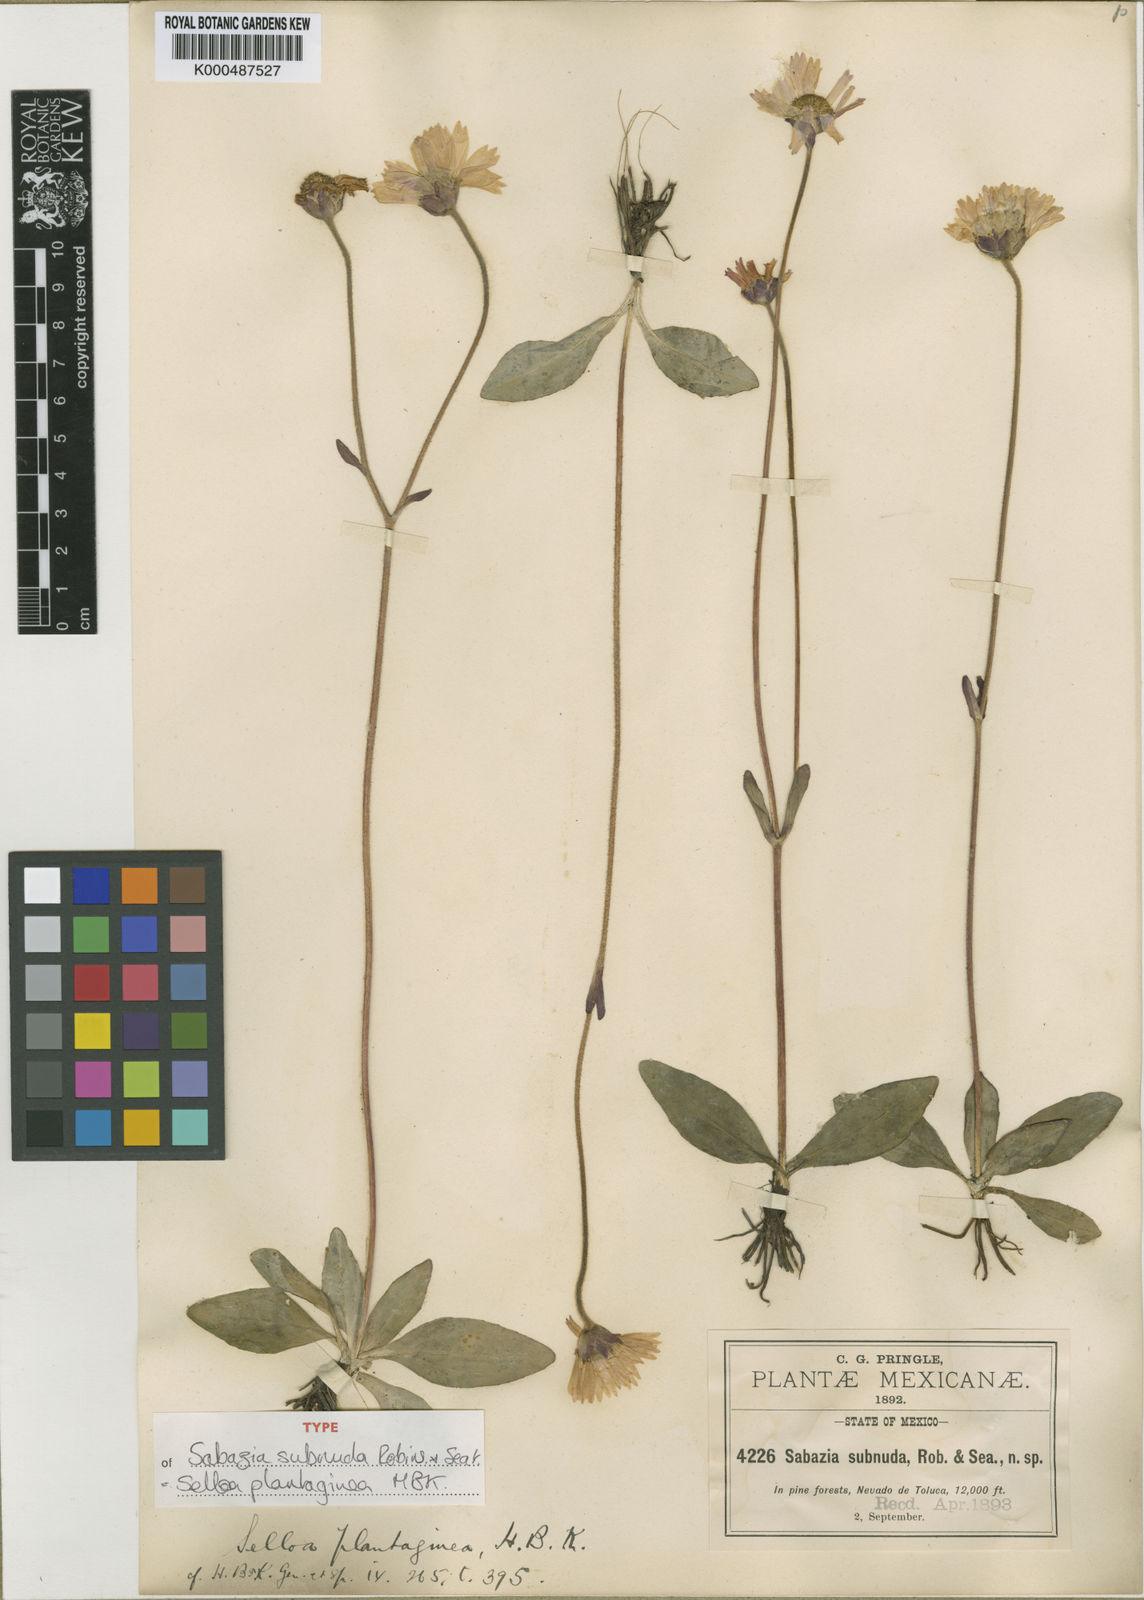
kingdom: Plantae
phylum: Tracheophyta
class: Magnoliopsida
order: Asterales
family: Asteraceae
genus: Selloa
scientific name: Selloa plantaginea
